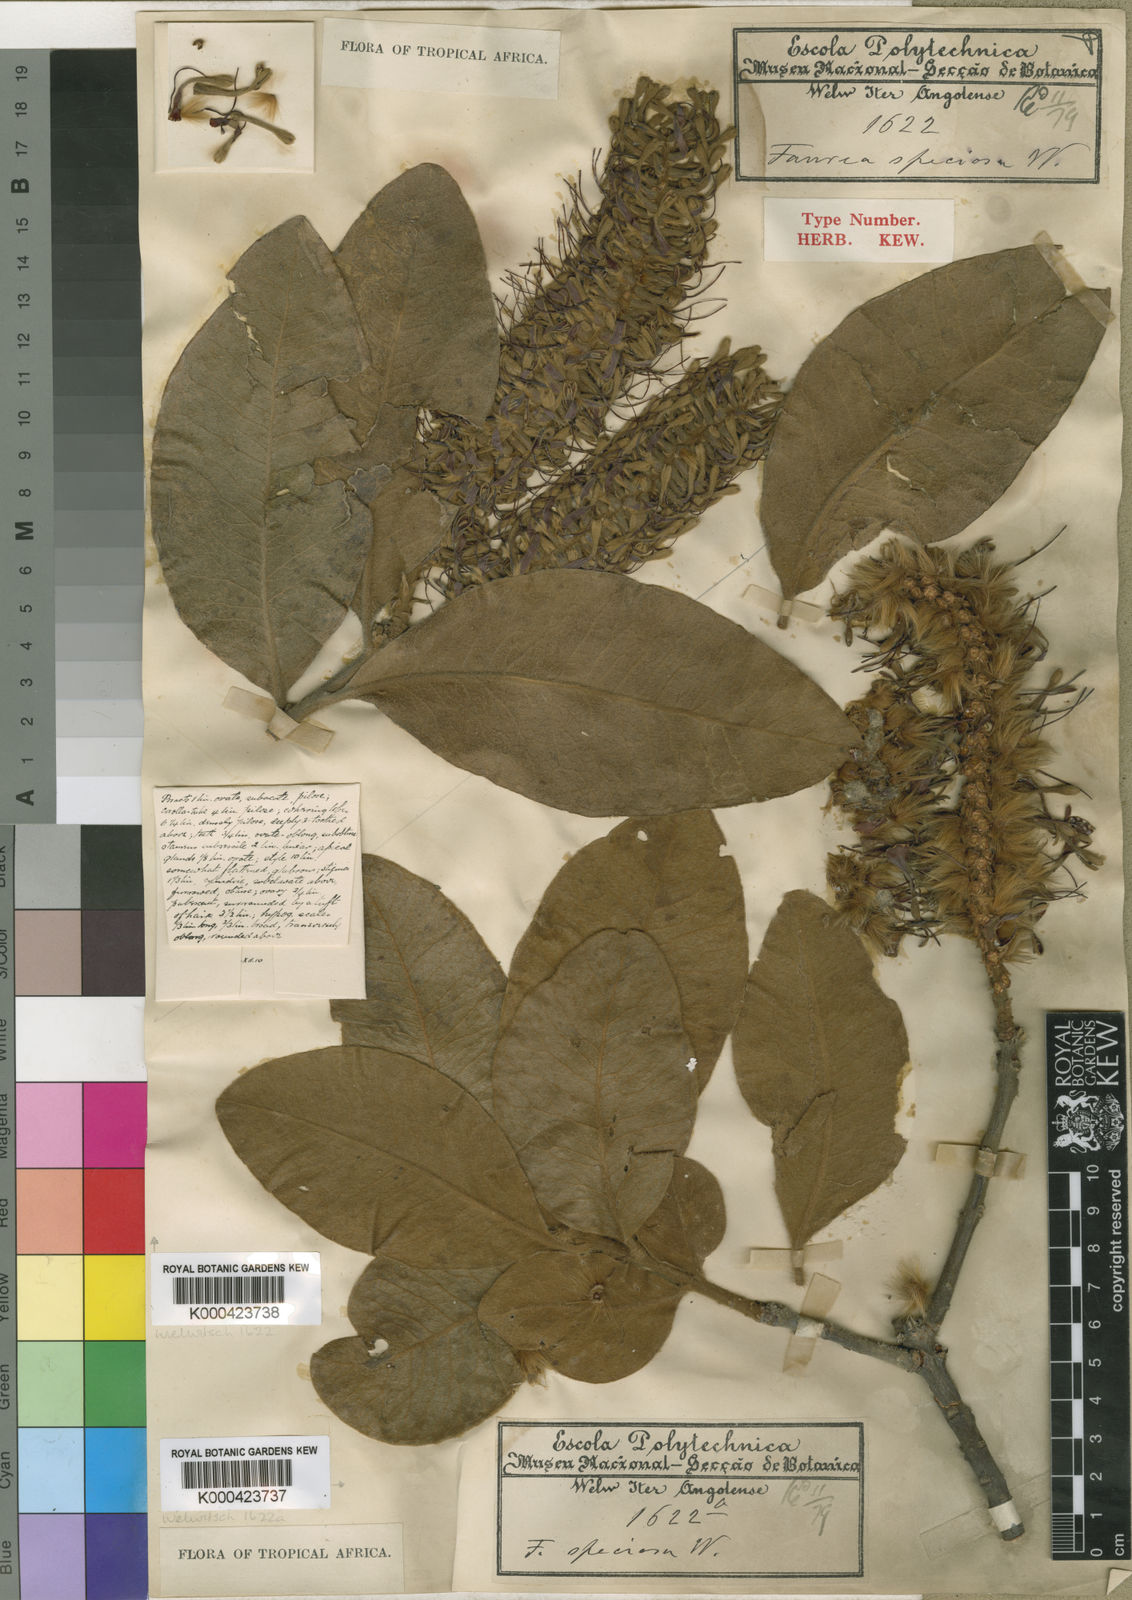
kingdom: Plantae
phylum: Tracheophyta
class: Magnoliopsida
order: Proteales
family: Proteaceae
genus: Faurea
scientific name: Faurea rochetiana
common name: Broad-leaved beech
